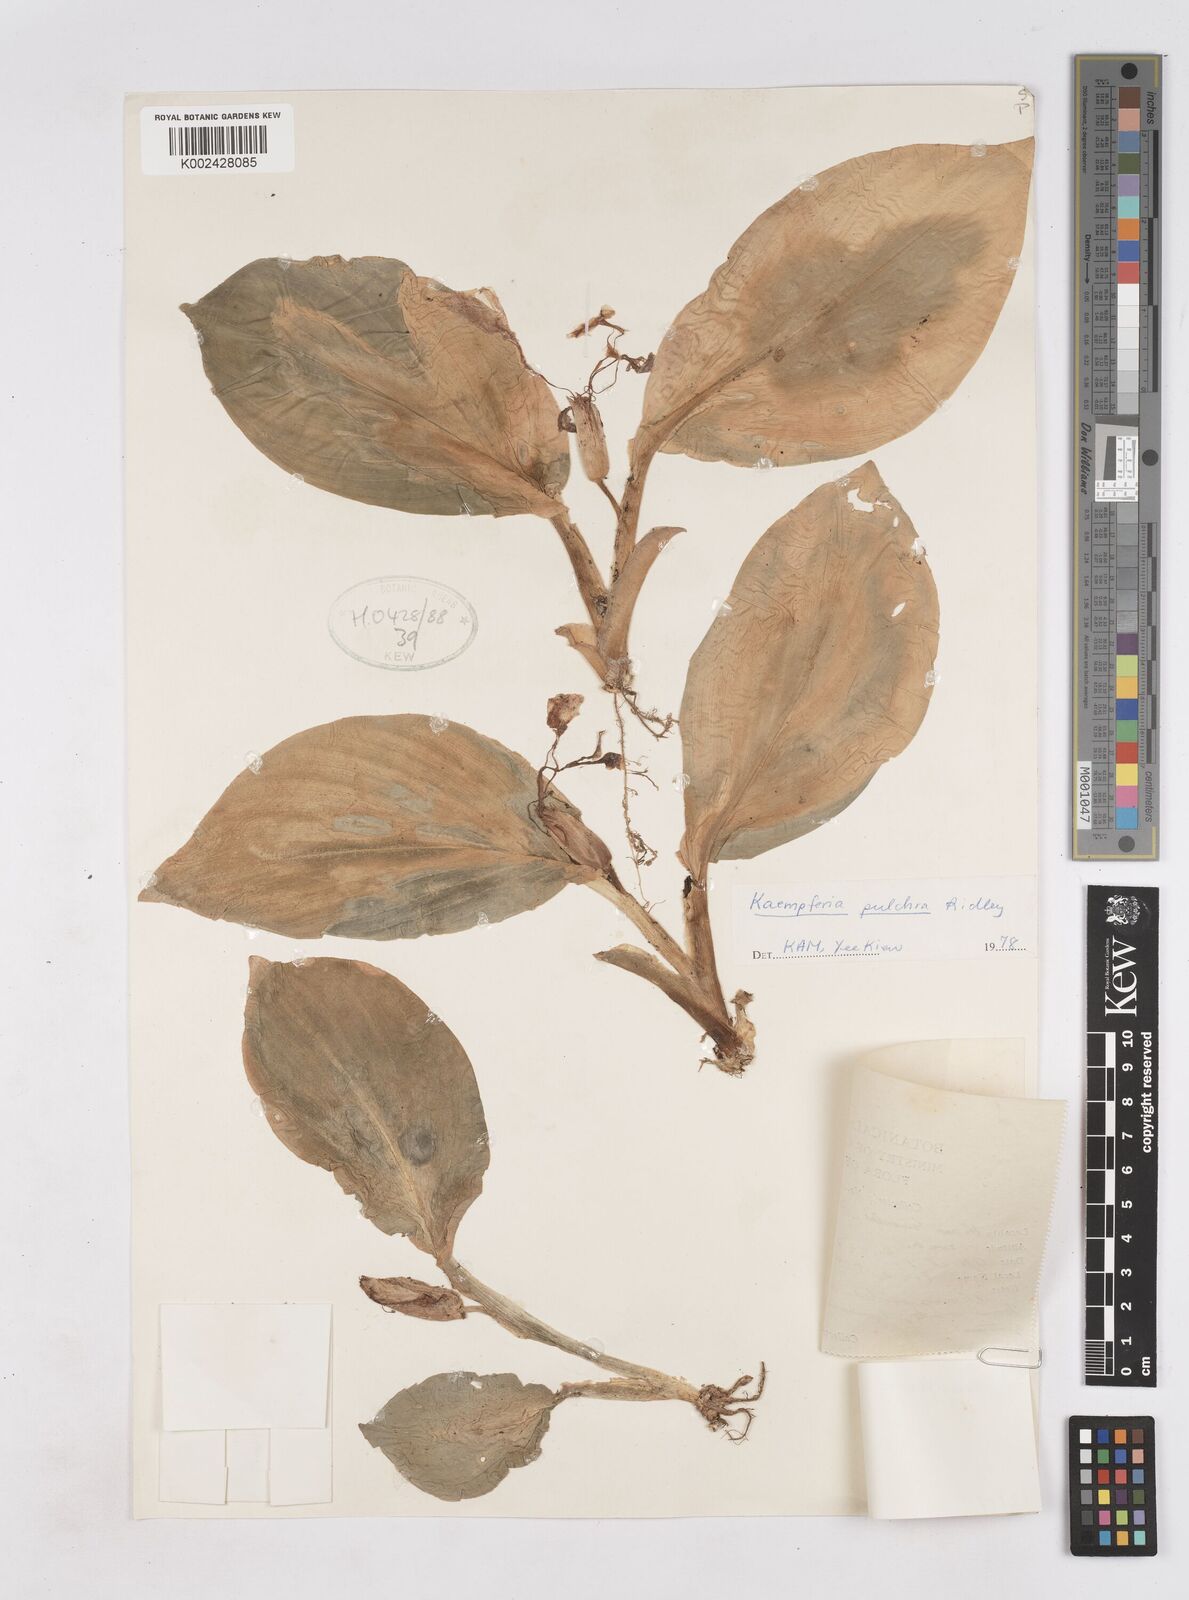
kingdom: Plantae
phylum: Tracheophyta
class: Liliopsida
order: Zingiberales
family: Zingiberaceae
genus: Kaempferia
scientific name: Kaempferia elegans
